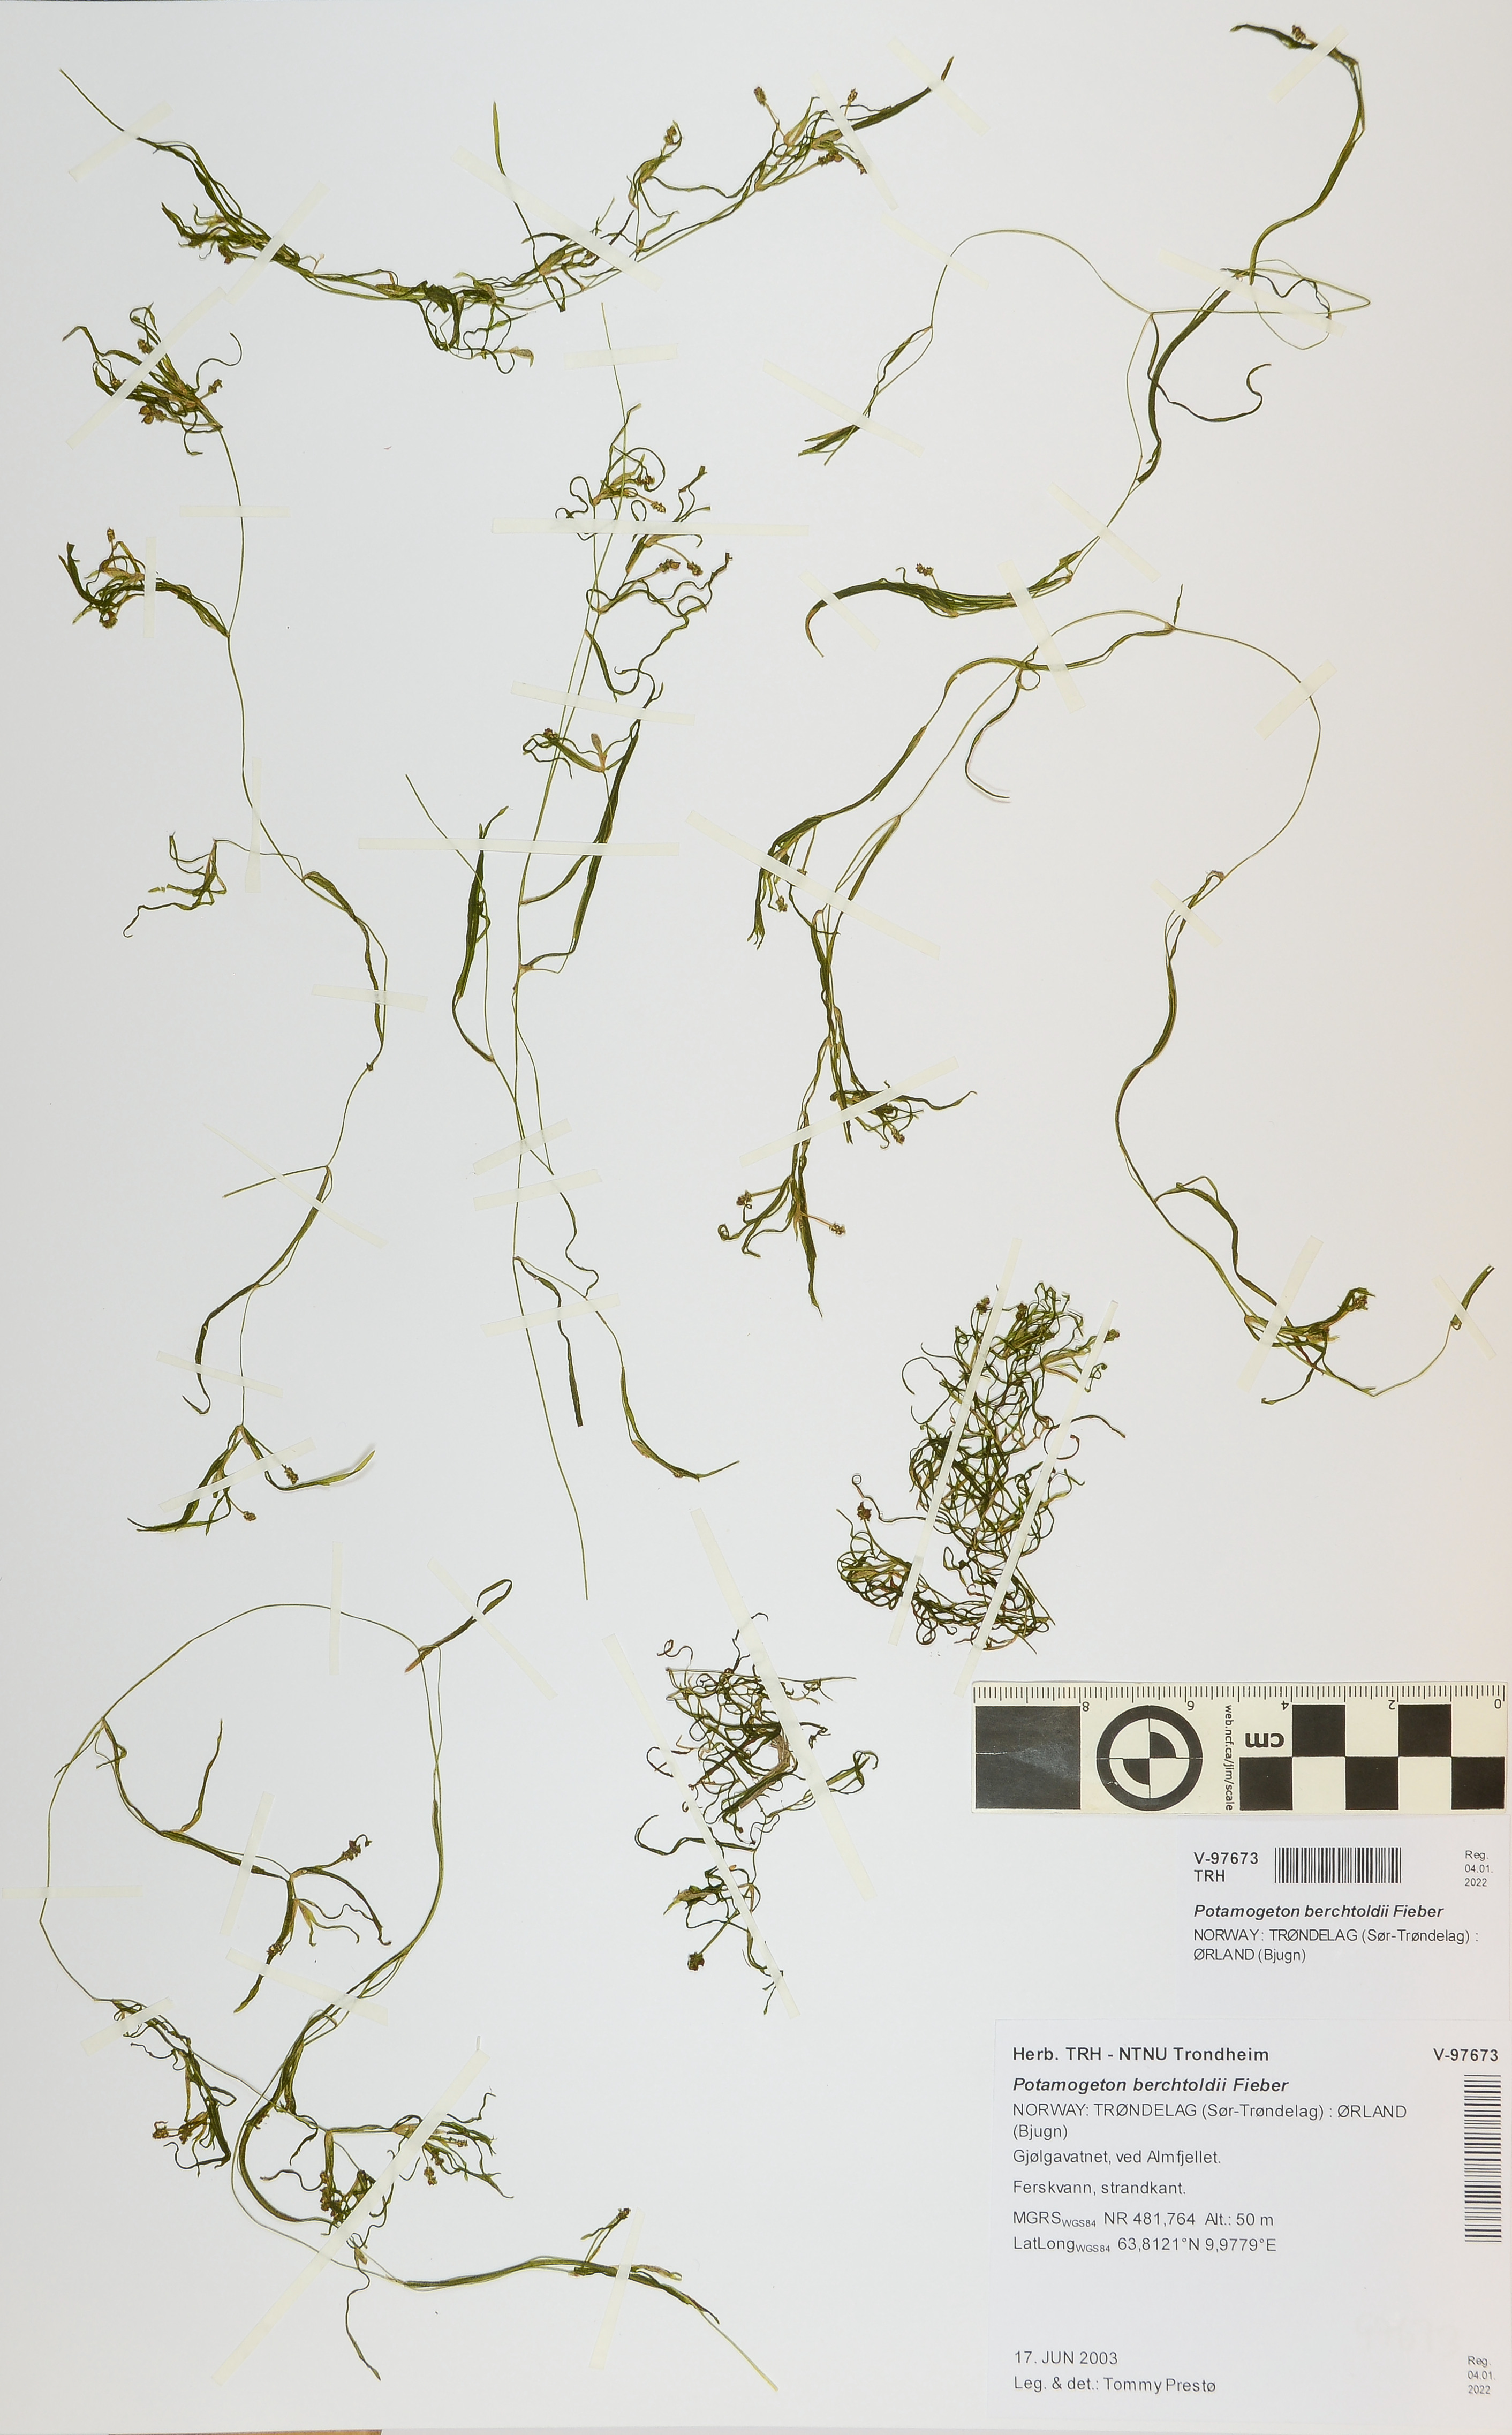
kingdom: Plantae
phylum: Tracheophyta
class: Liliopsida
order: Alismatales
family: Potamogetonaceae
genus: Potamogeton
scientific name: Potamogeton berchtoldii
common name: Small pondweed
